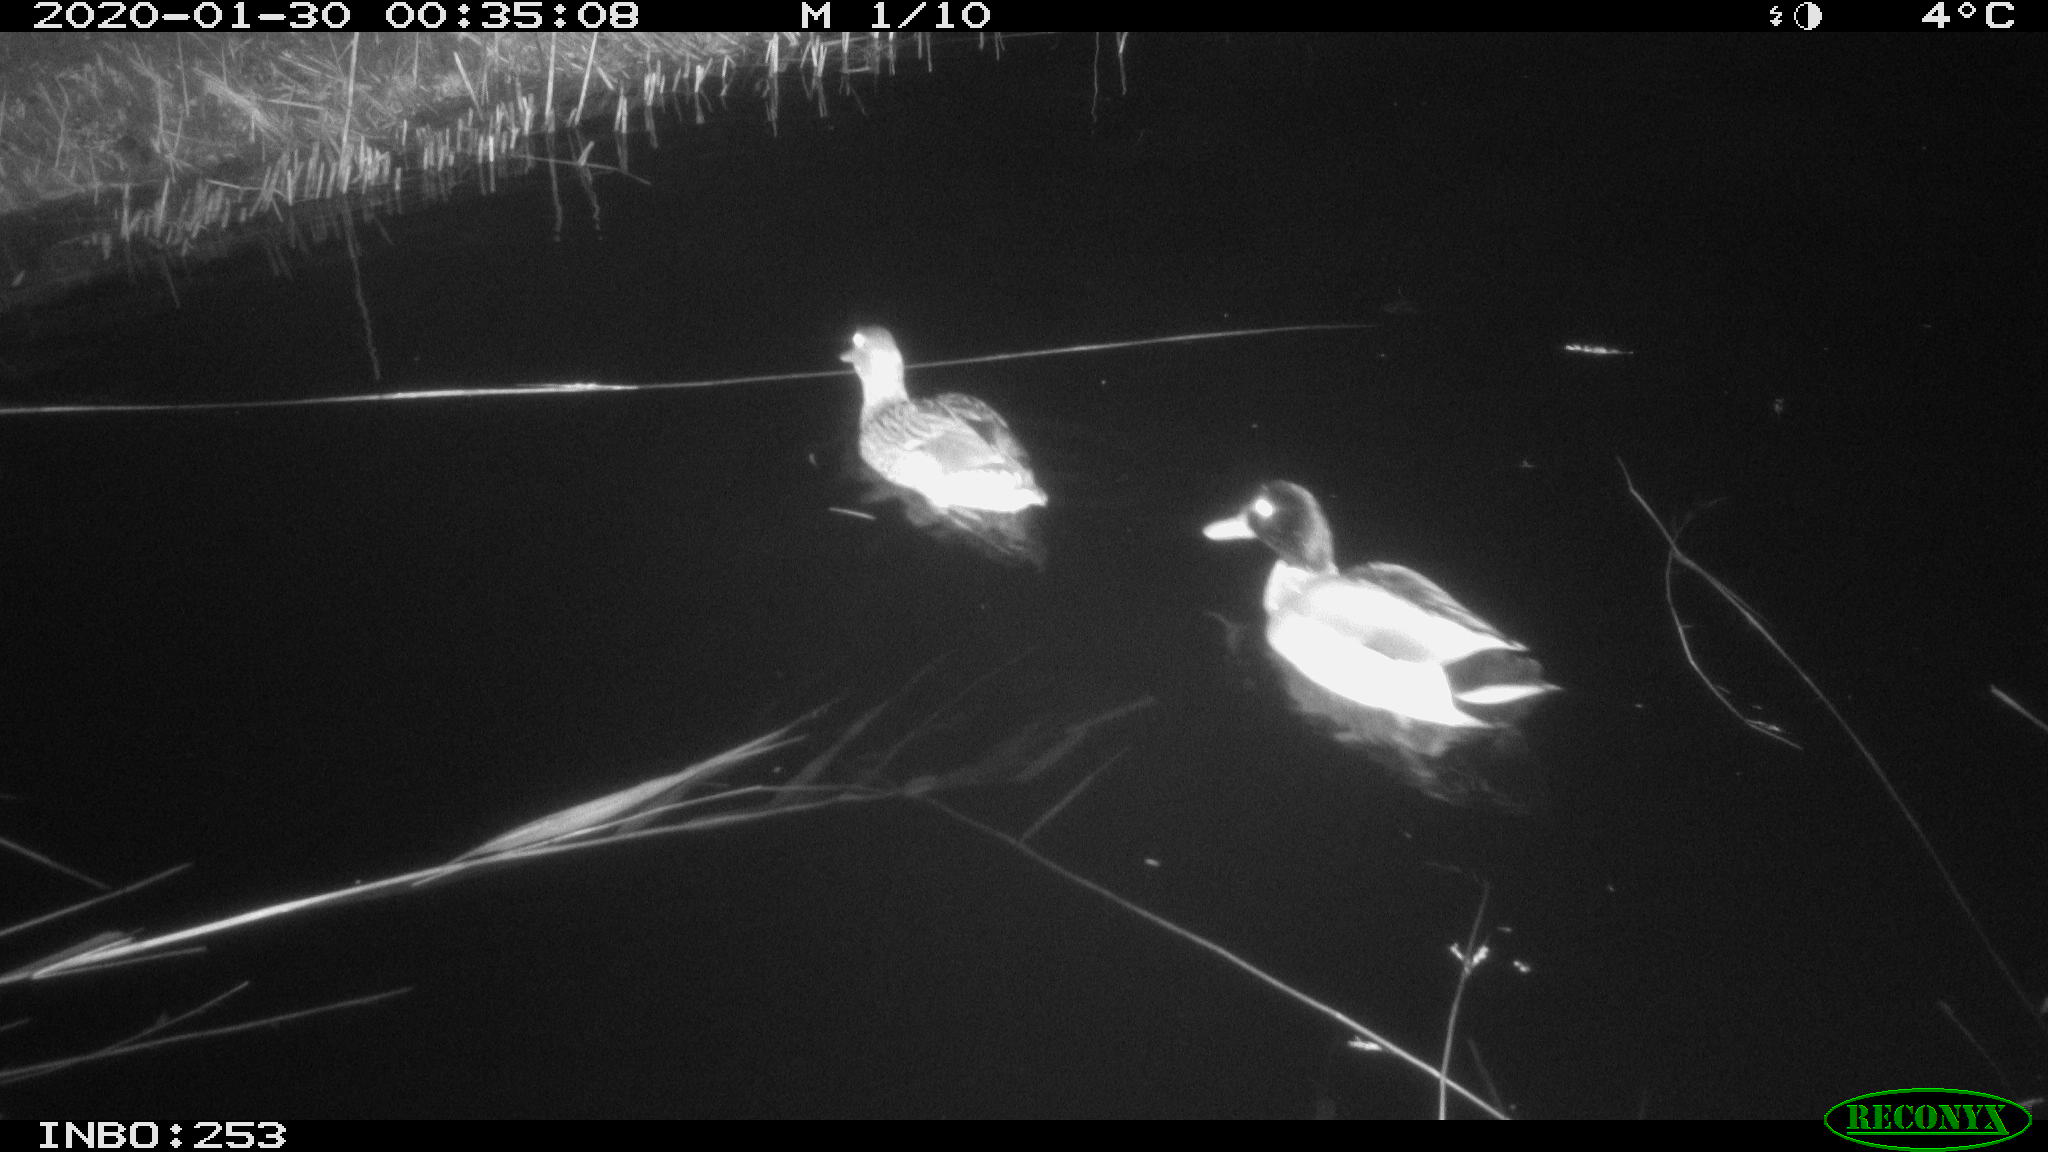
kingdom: Animalia
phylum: Chordata
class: Aves
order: Anseriformes
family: Anatidae
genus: Anas
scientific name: Anas platyrhynchos
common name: Mallard
